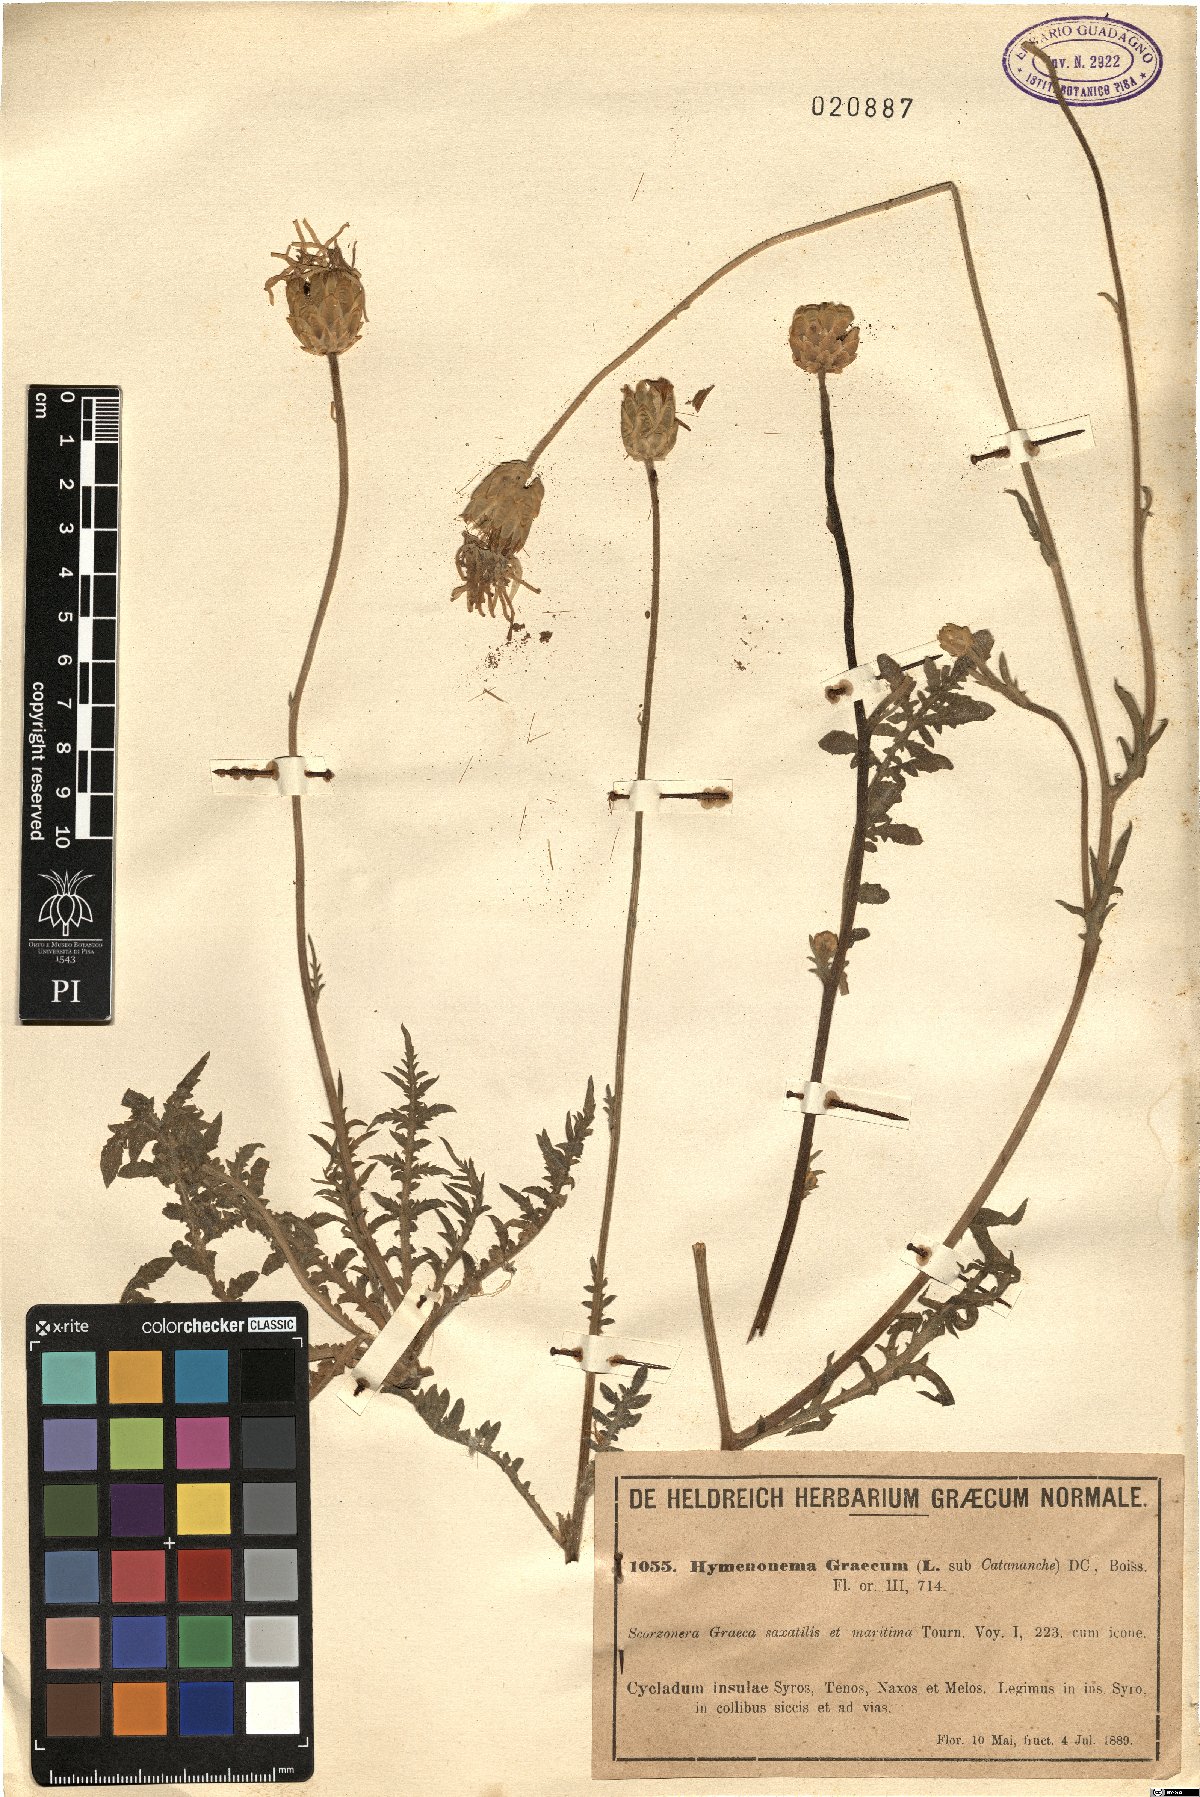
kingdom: Plantae
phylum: Tracheophyta
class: Magnoliopsida
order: Asterales
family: Asteraceae
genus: Hymenonema
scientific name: Hymenonema graecum
